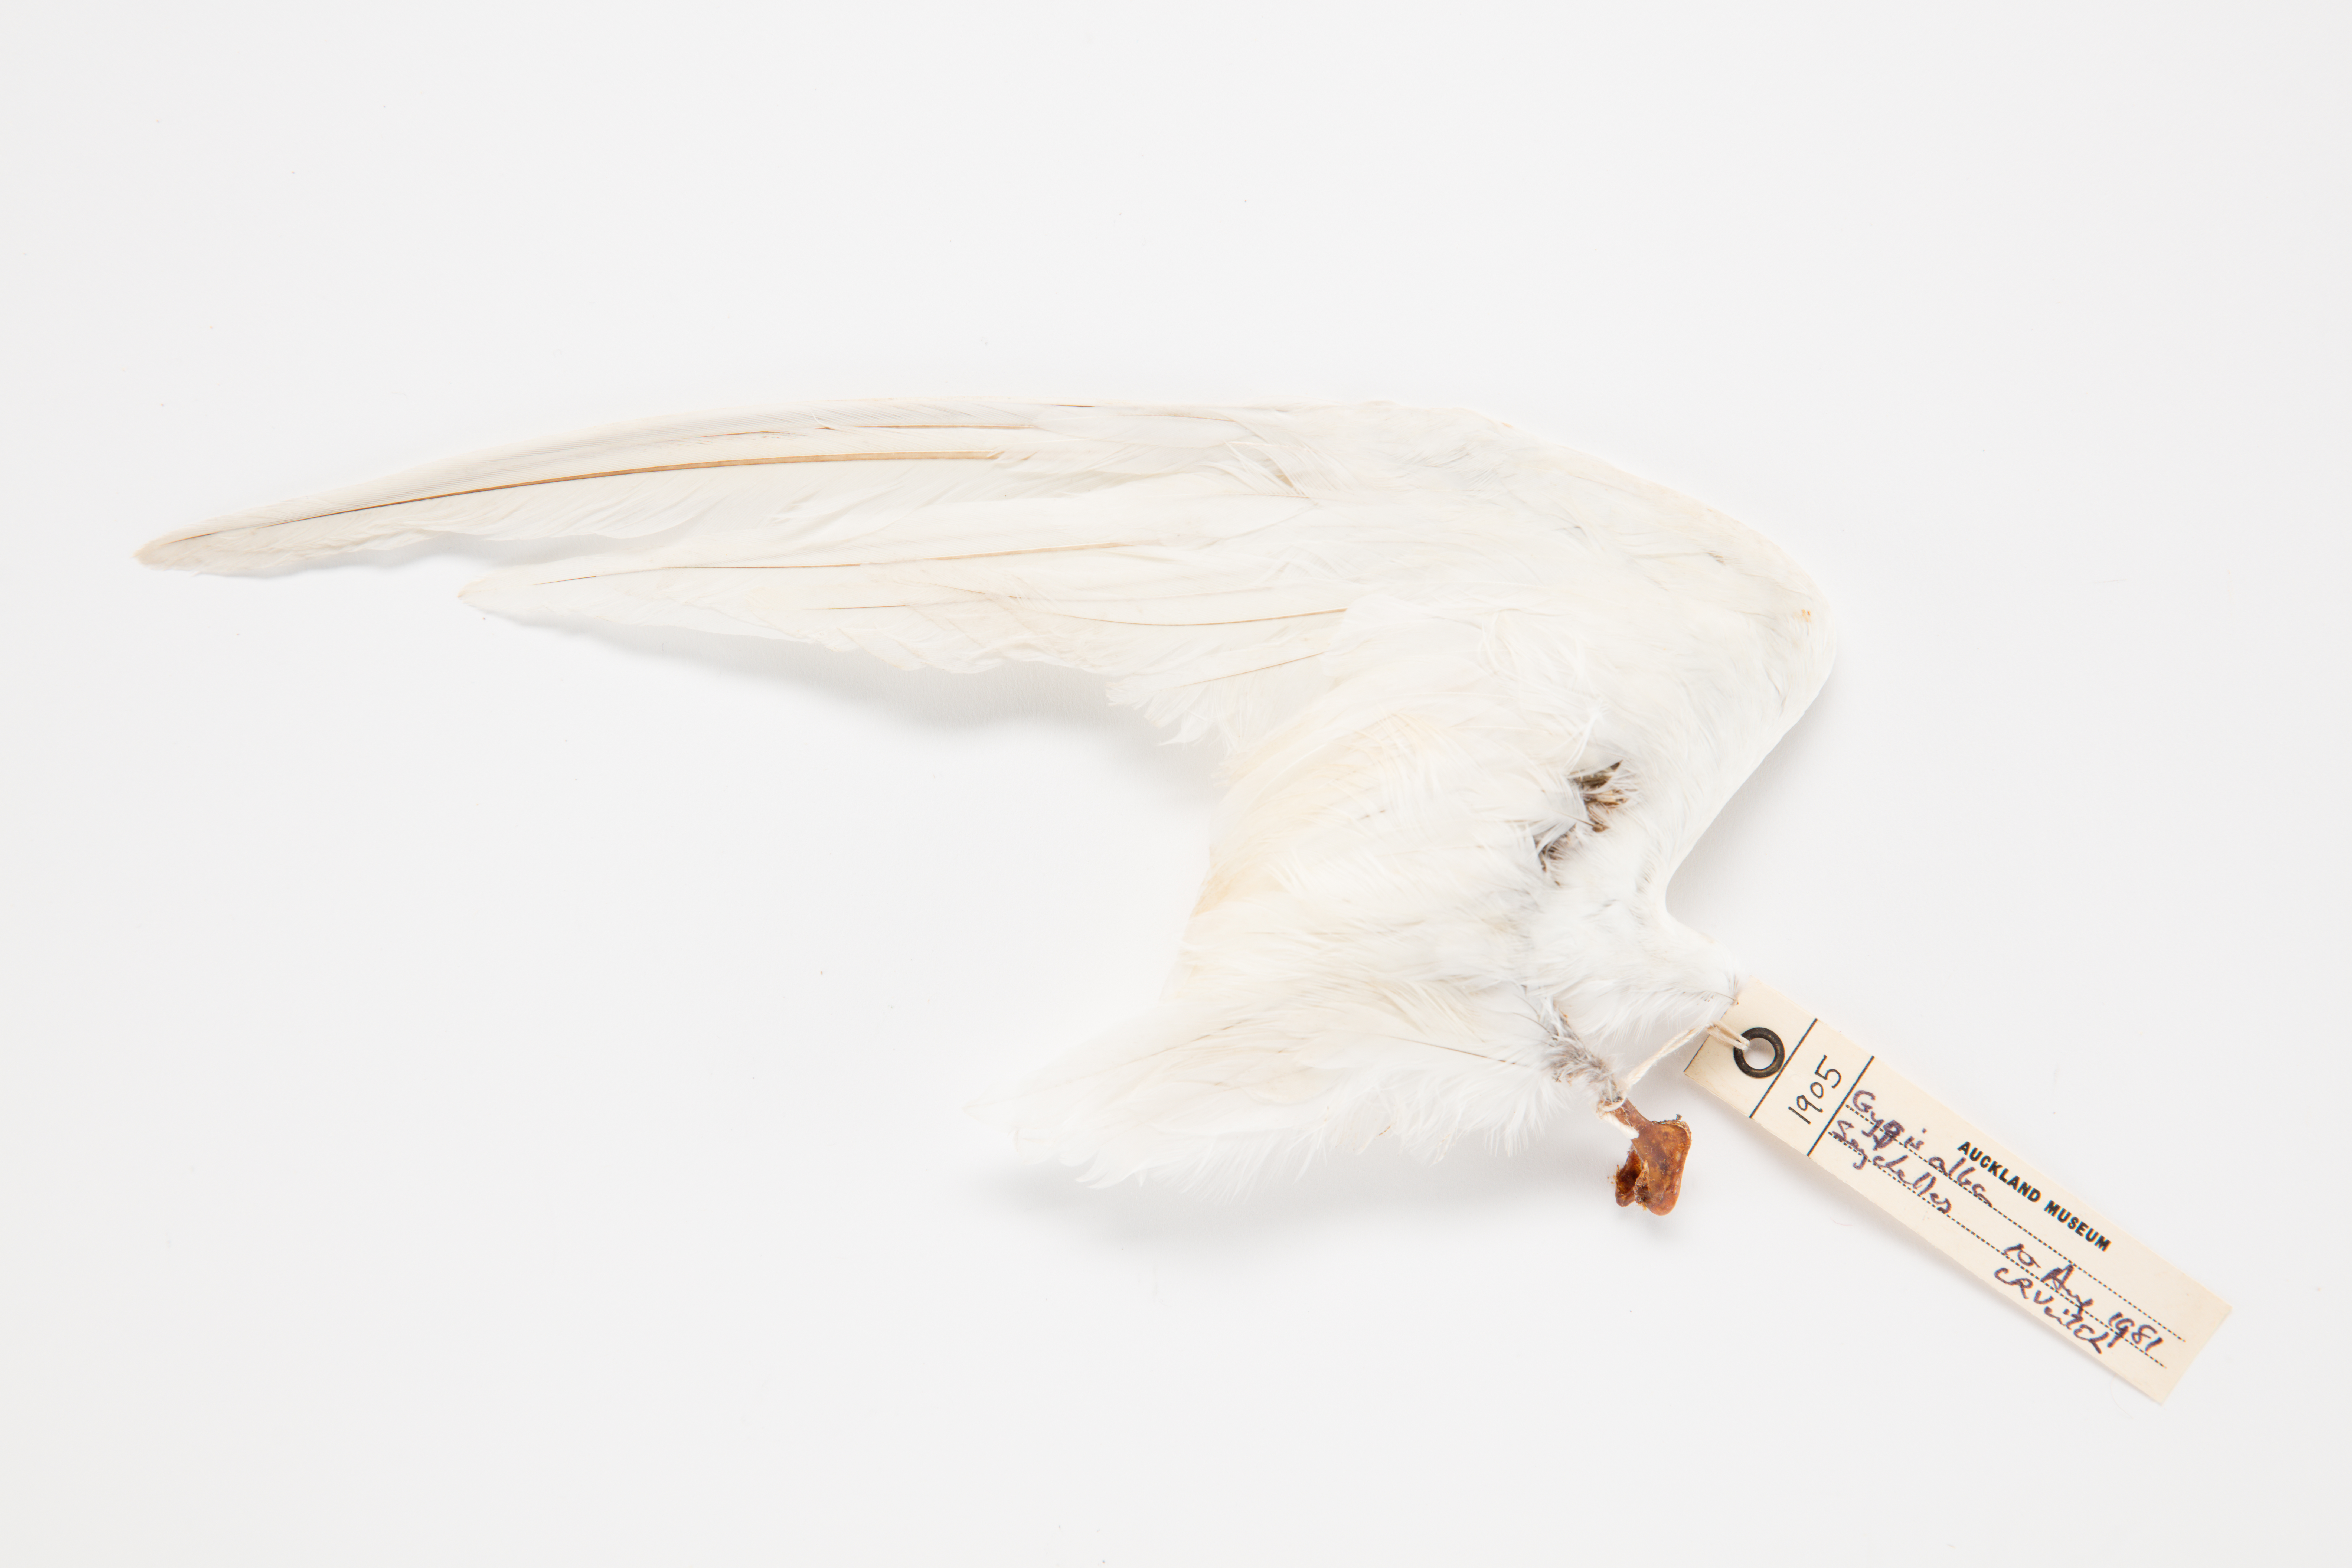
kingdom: Animalia
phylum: Chordata
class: Aves
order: Charadriiformes
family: Laridae
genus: Gygis
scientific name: Gygis alba
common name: White tern
